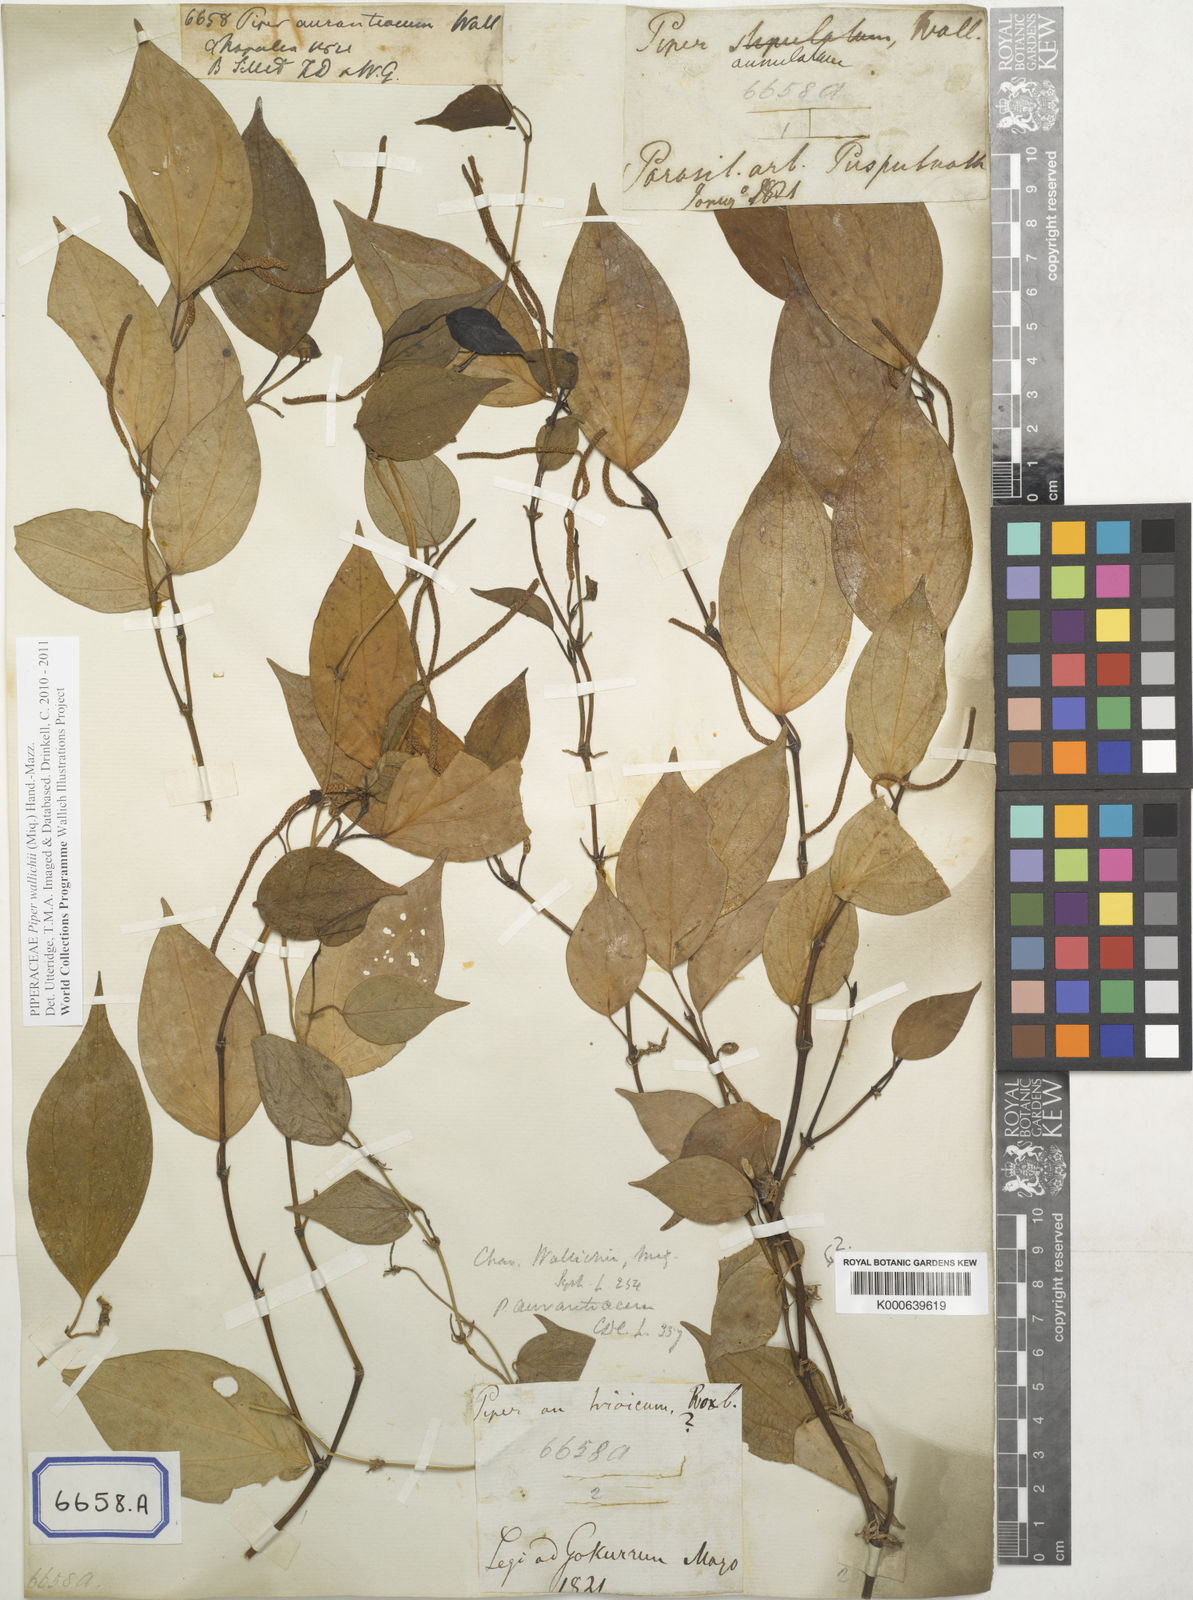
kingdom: Plantae
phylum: Tracheophyta
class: Magnoliopsida
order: Piperales
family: Piperaceae
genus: Piper
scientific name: Piper wallichii
